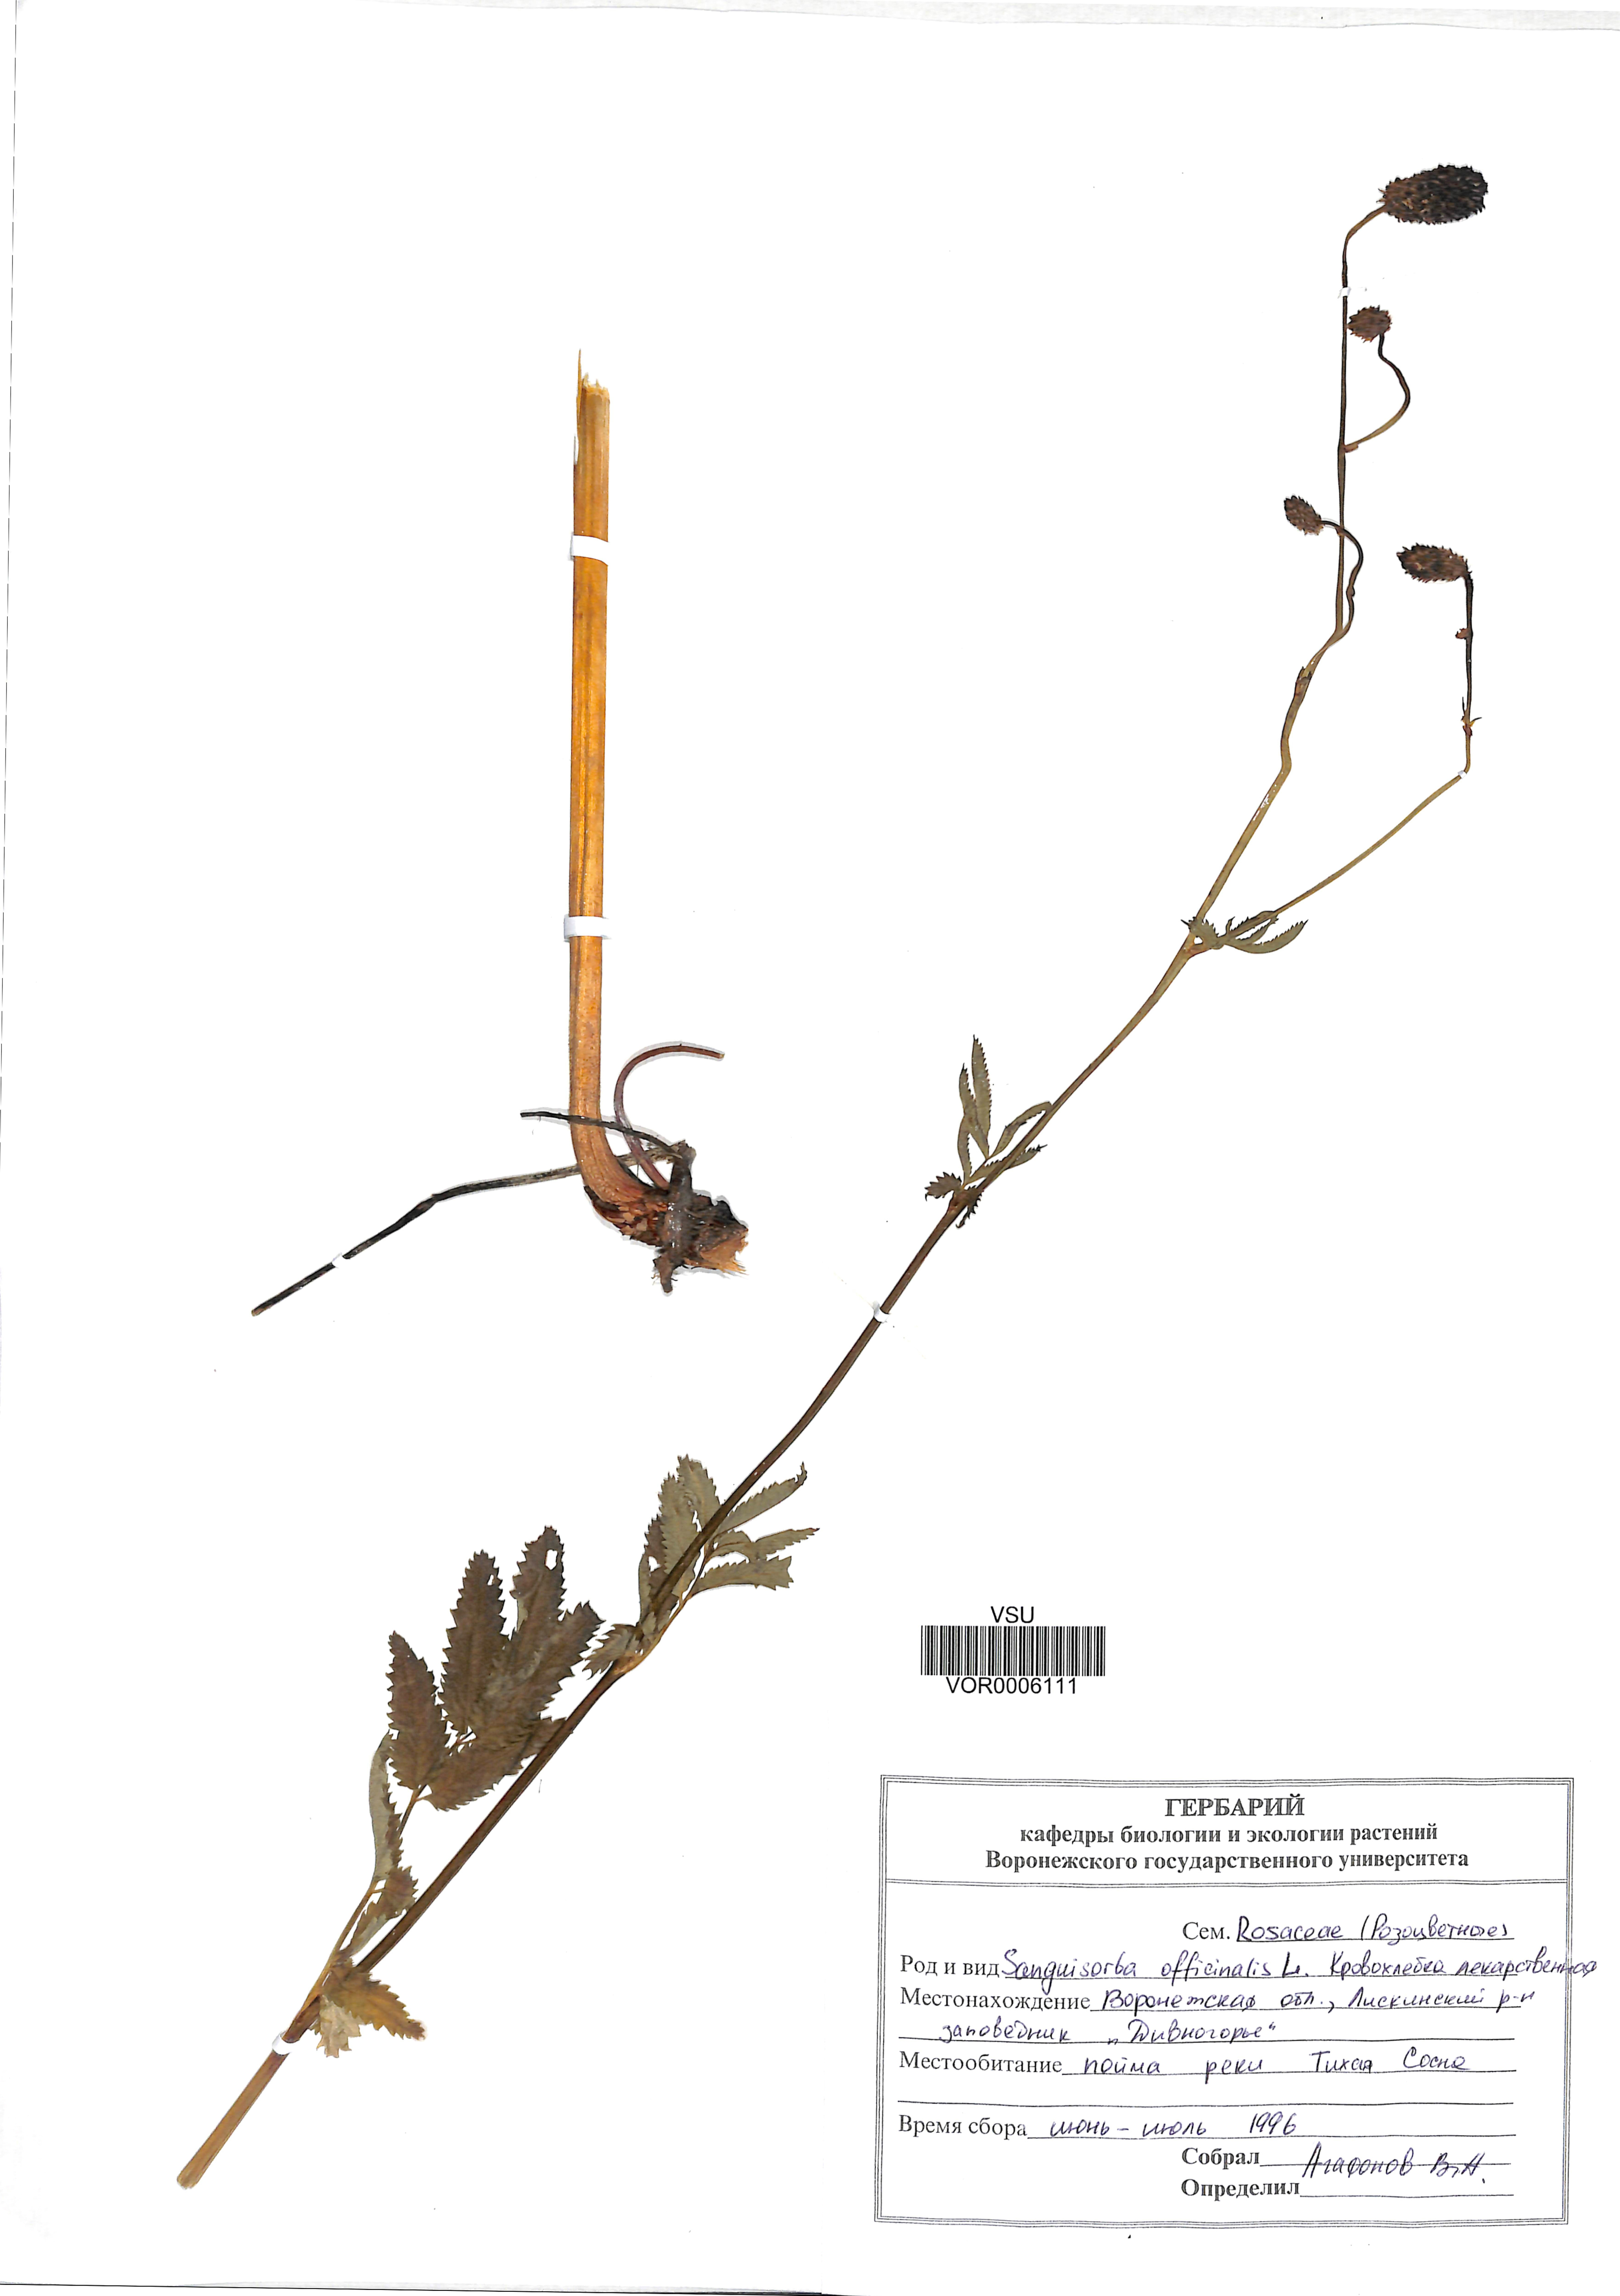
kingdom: Plantae
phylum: Tracheophyta
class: Magnoliopsida
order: Rosales
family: Rosaceae
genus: Sanguisorba
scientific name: Sanguisorba officinalis
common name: Great burnet
